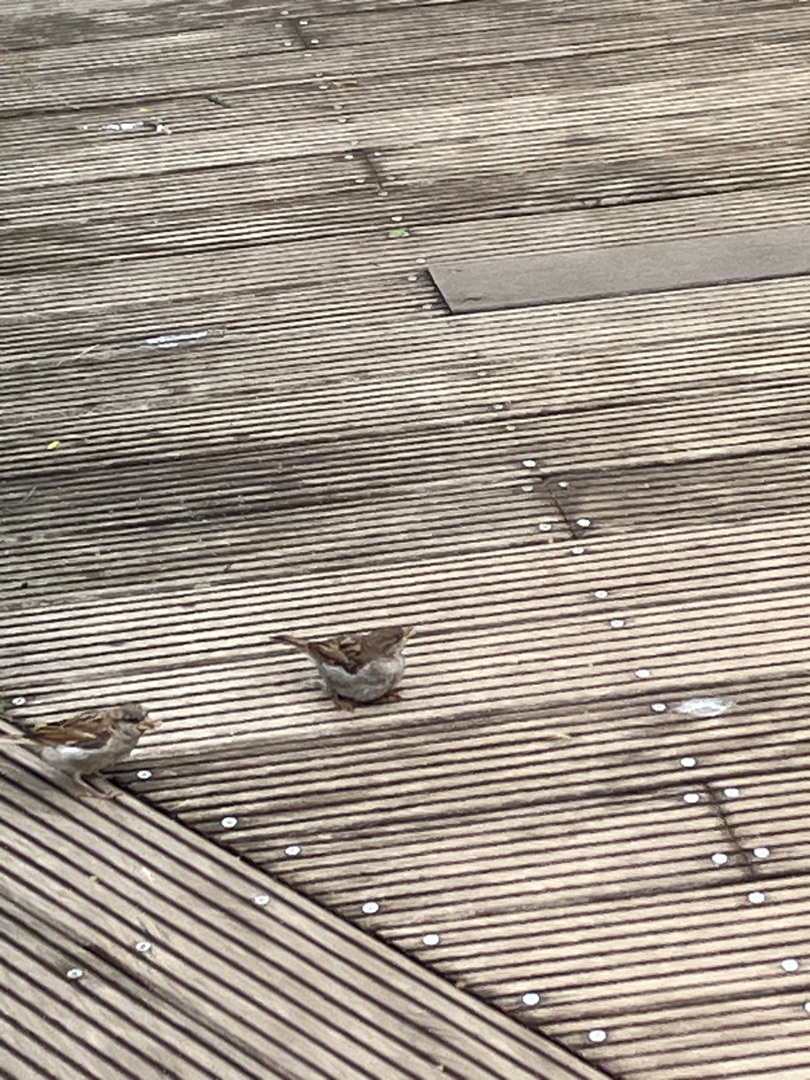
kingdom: Animalia
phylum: Chordata
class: Aves
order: Passeriformes
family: Passeridae
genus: Passer
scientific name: Passer domesticus
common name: Gråspurv
